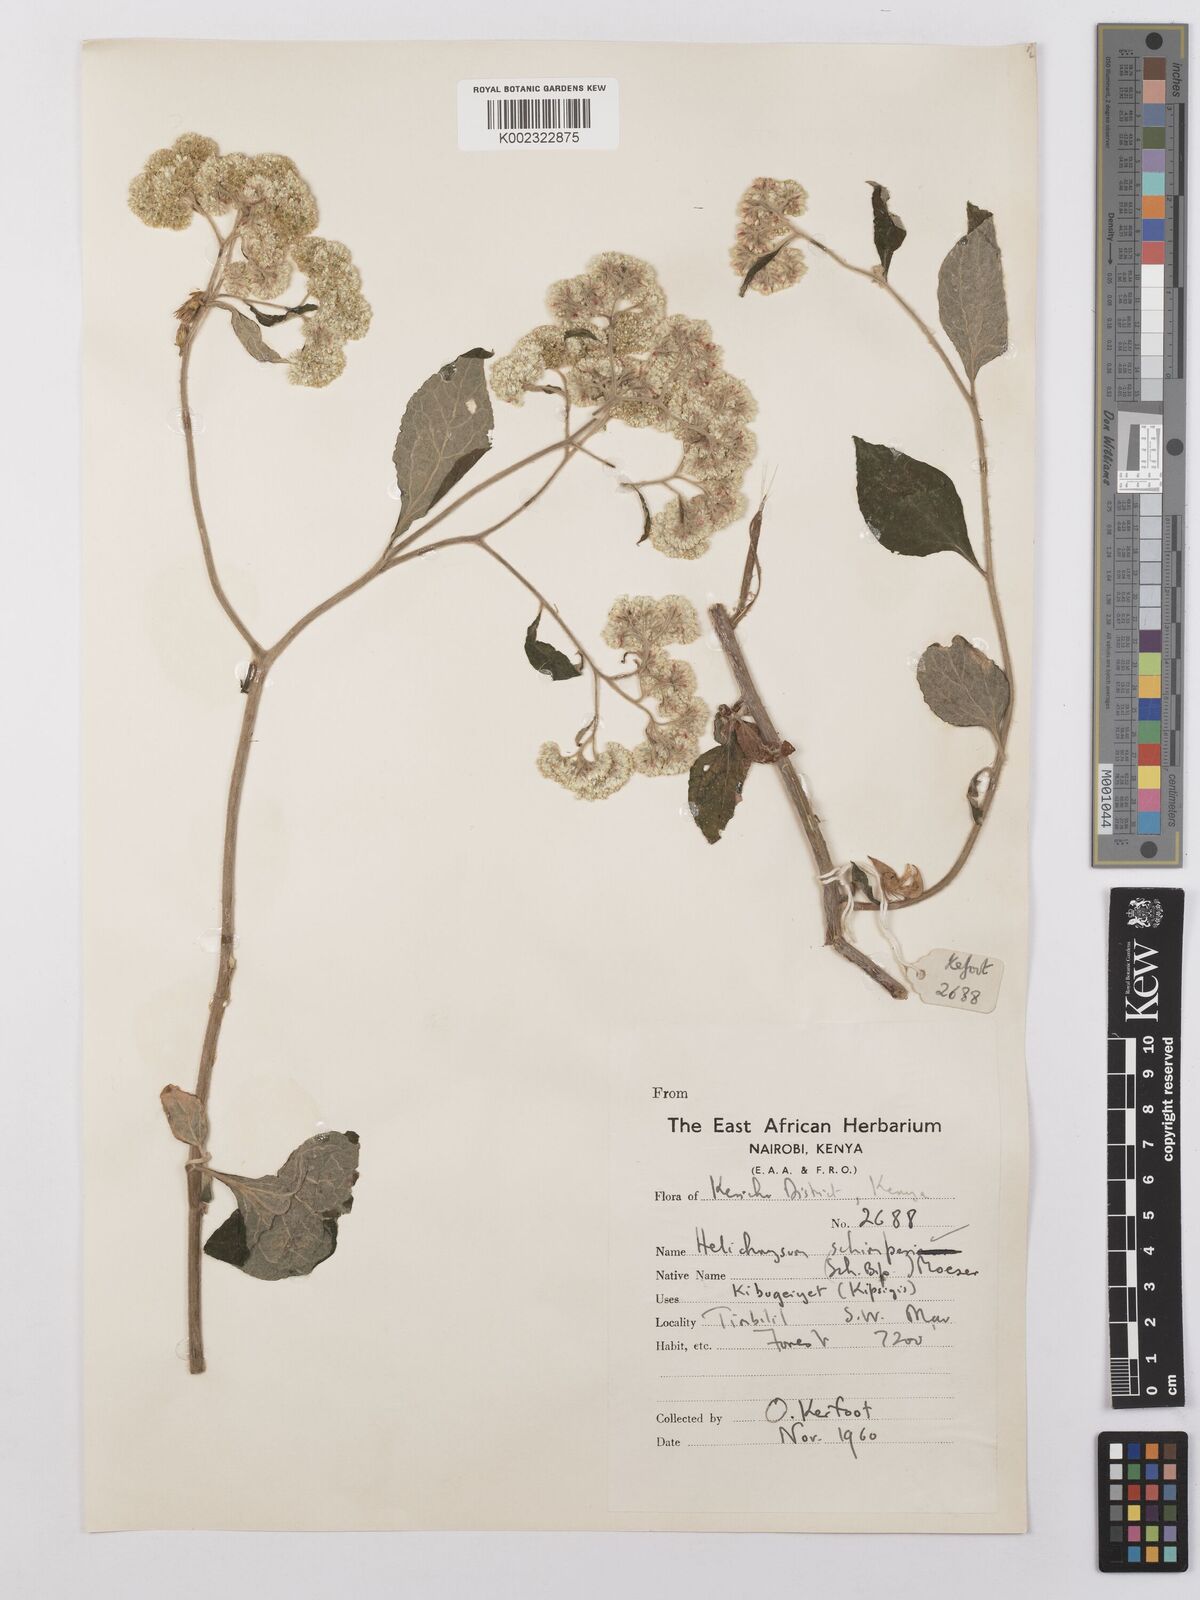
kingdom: Plantae
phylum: Tracheophyta
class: Magnoliopsida
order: Asterales
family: Asteraceae
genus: Helichrysum
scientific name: Helichrysum schimperi
